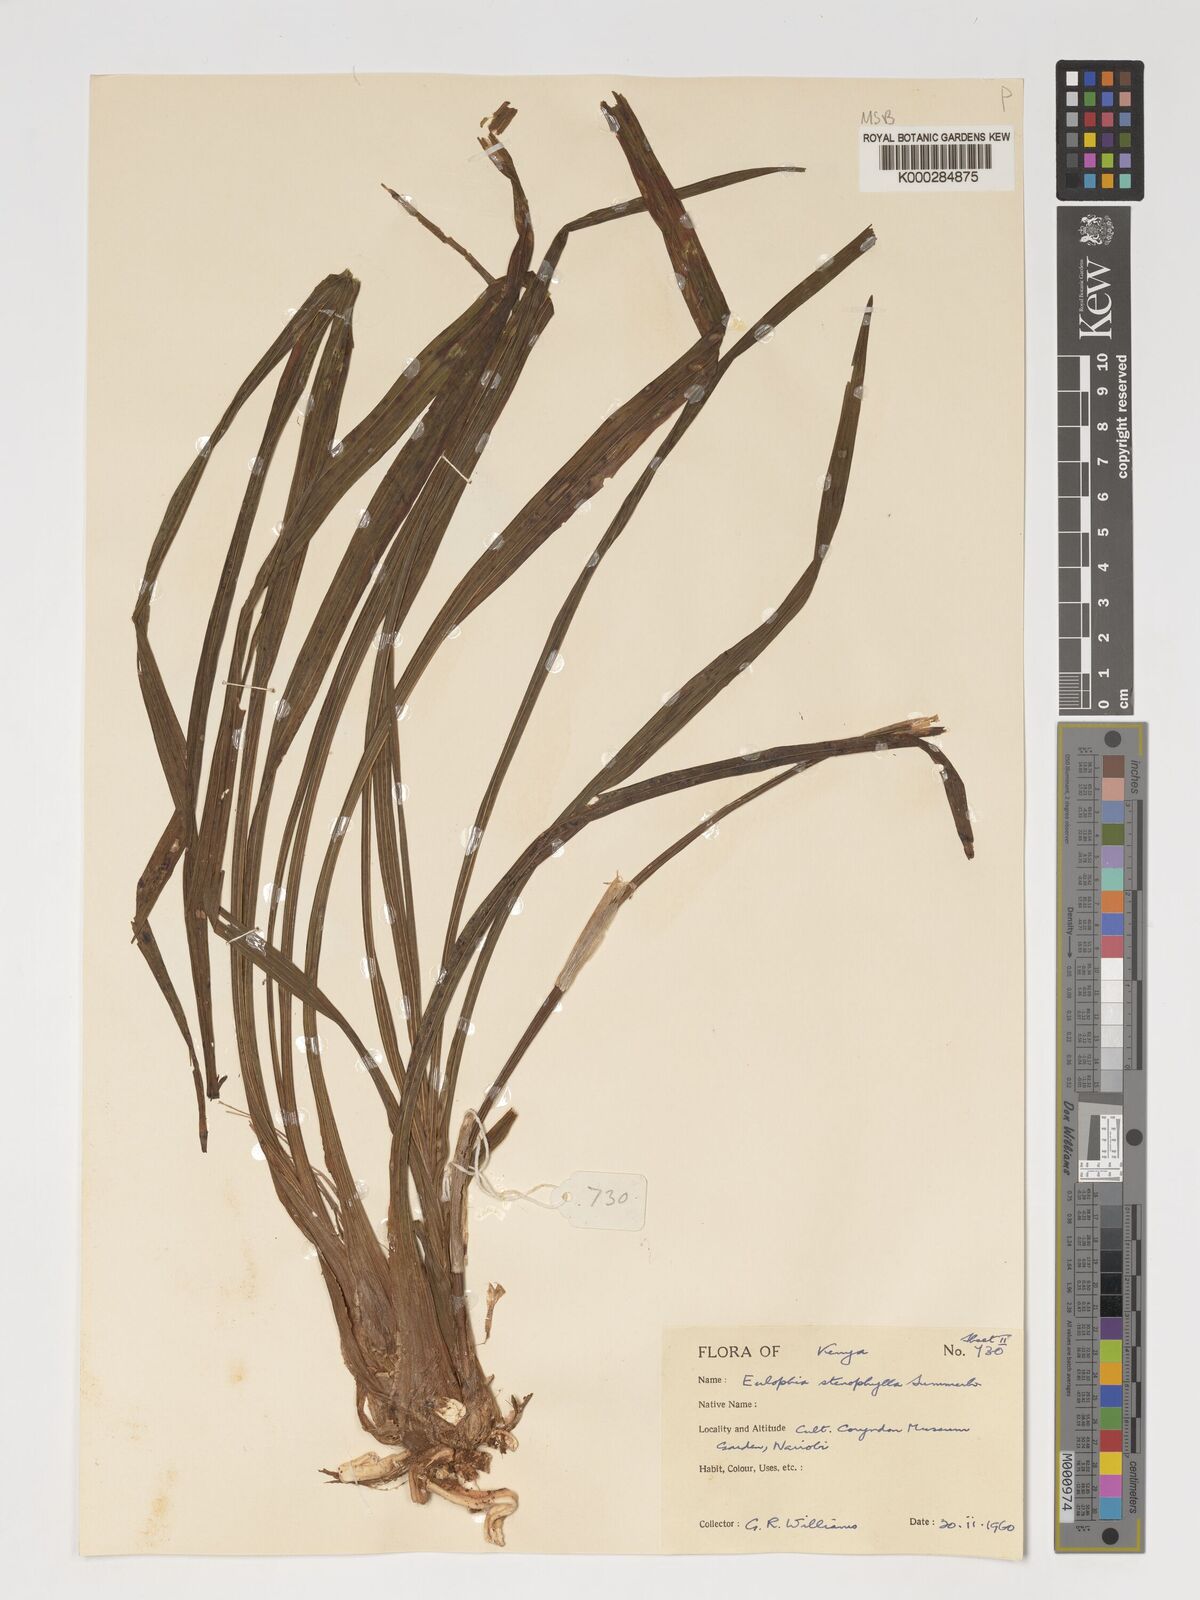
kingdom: Plantae
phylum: Tracheophyta
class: Liliopsida
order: Asparagales
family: Orchidaceae
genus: Eulophia
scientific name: Eulophia streptopetala
